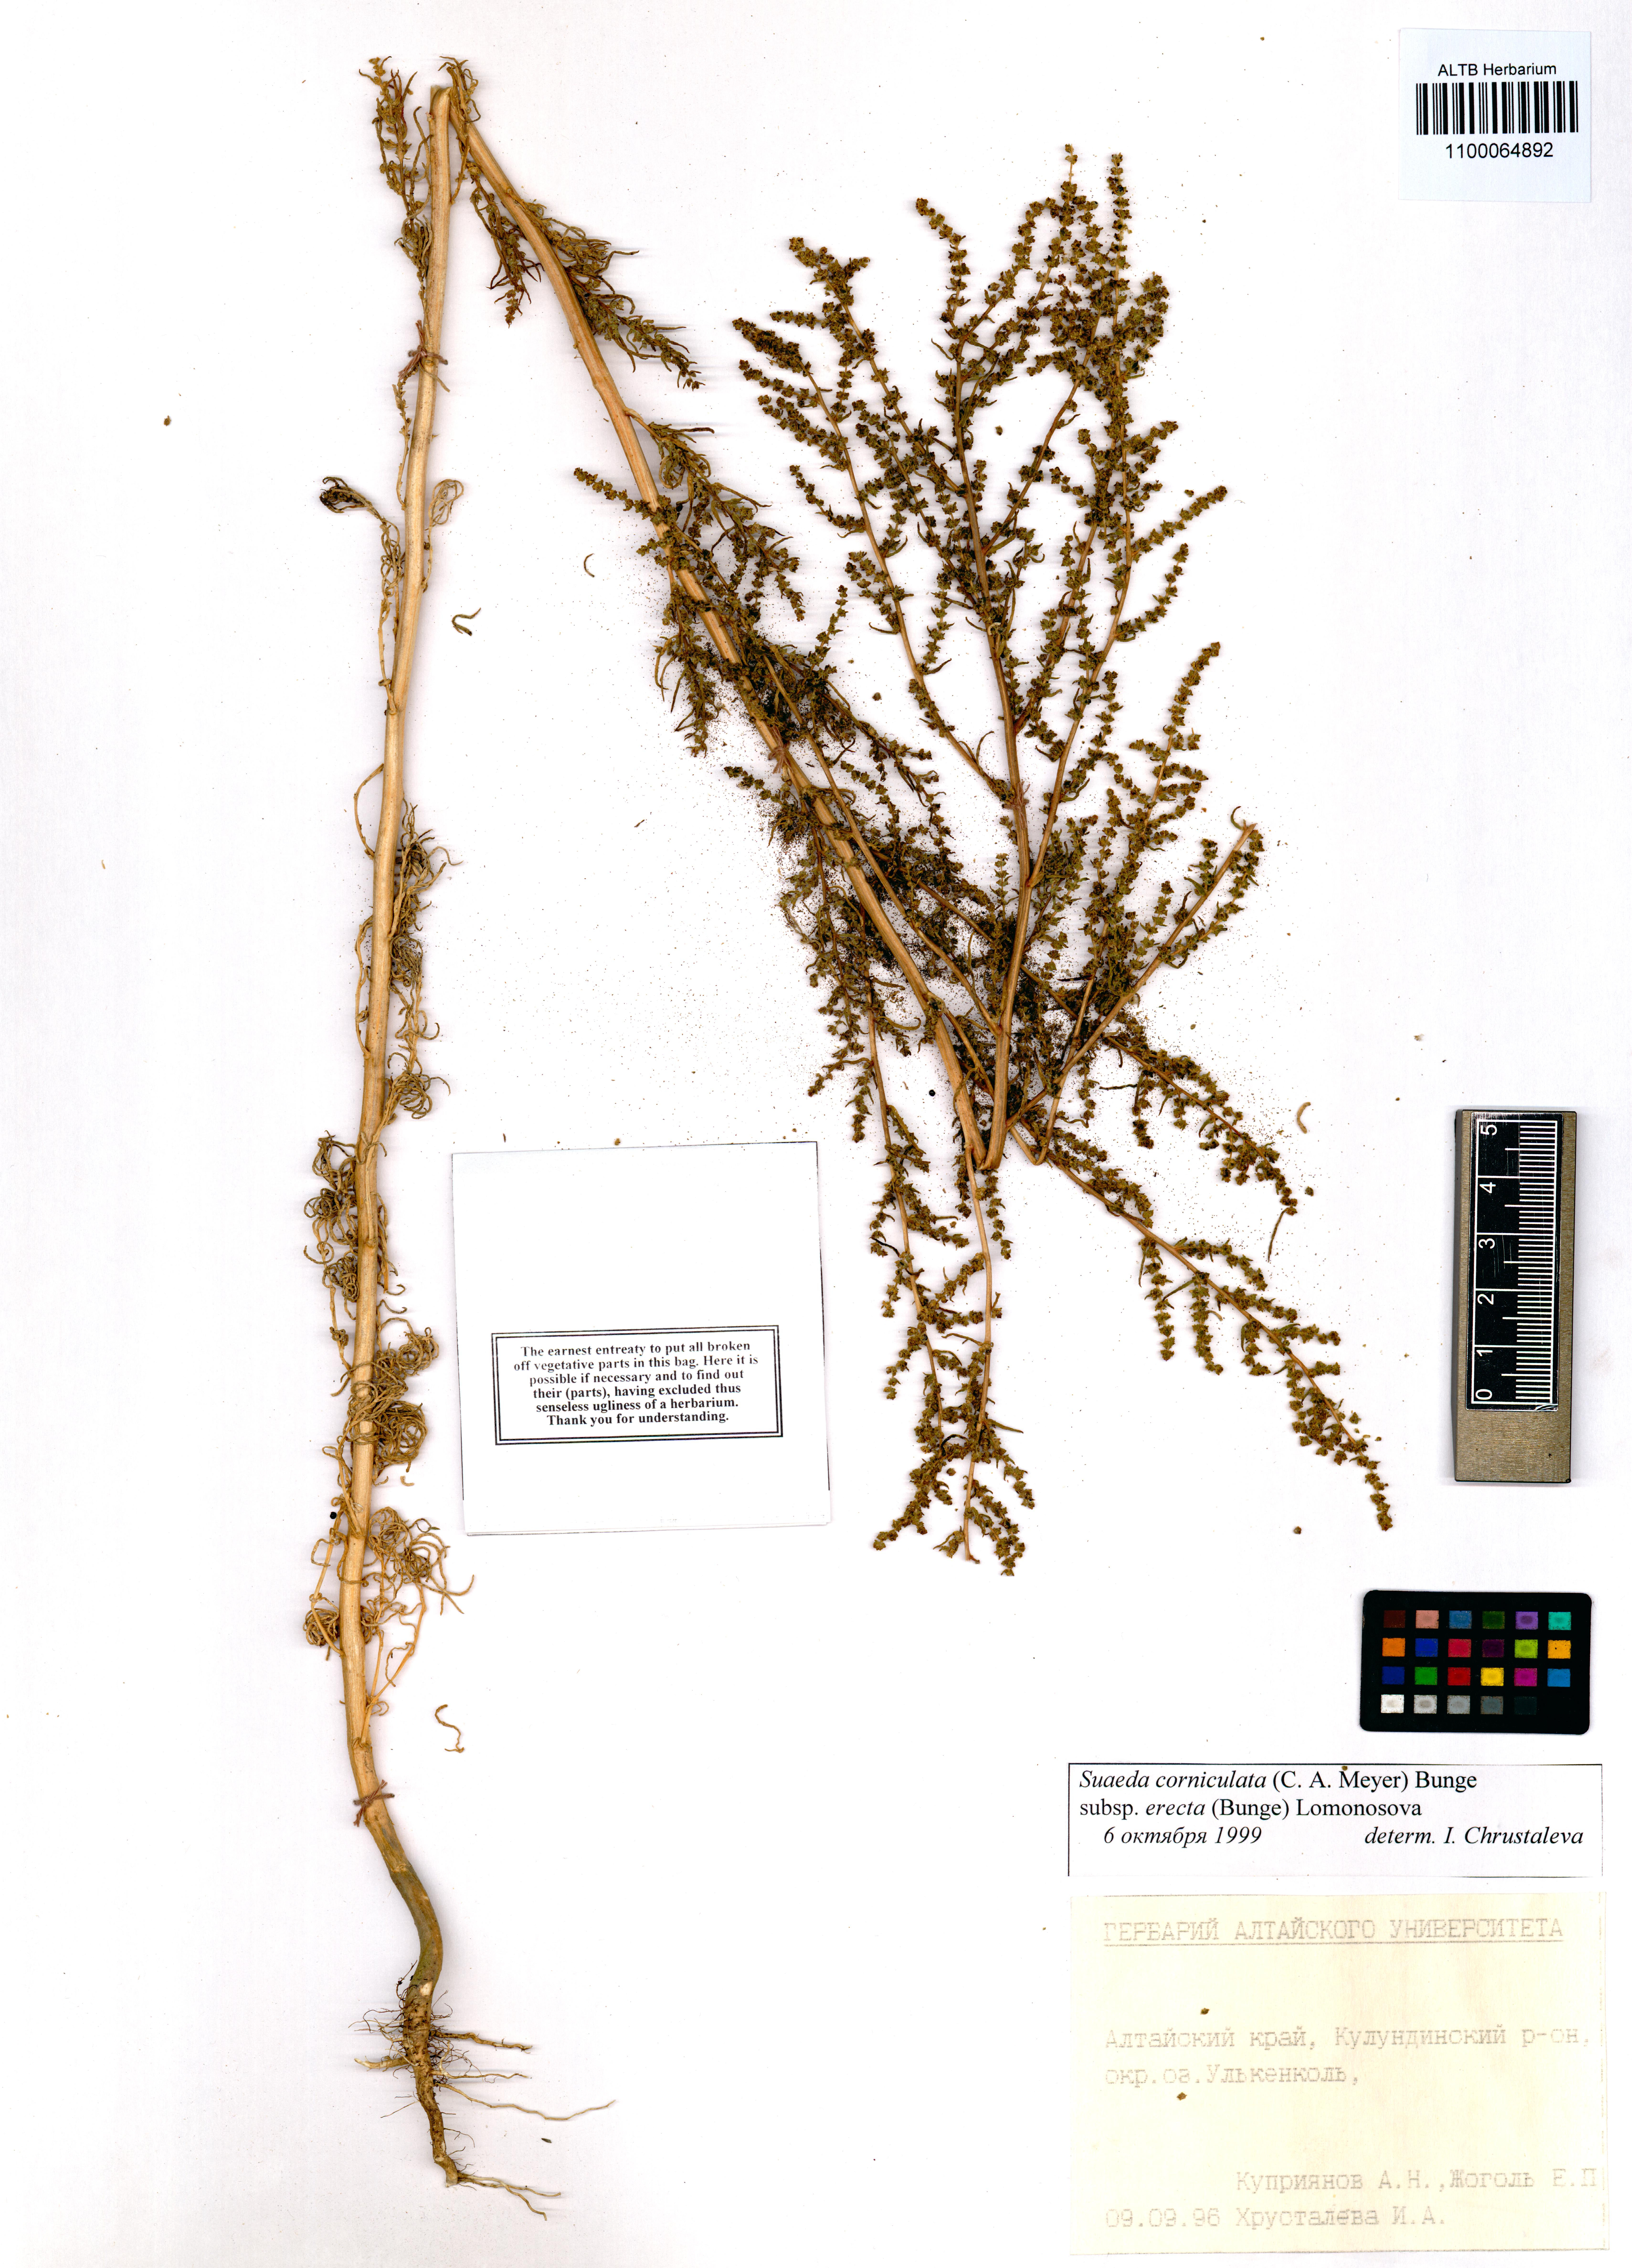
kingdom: Plantae
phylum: Tracheophyta
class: Magnoliopsida
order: Caryophyllales
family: Amaranthaceae
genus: Suaeda
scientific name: Suaeda corniculata
